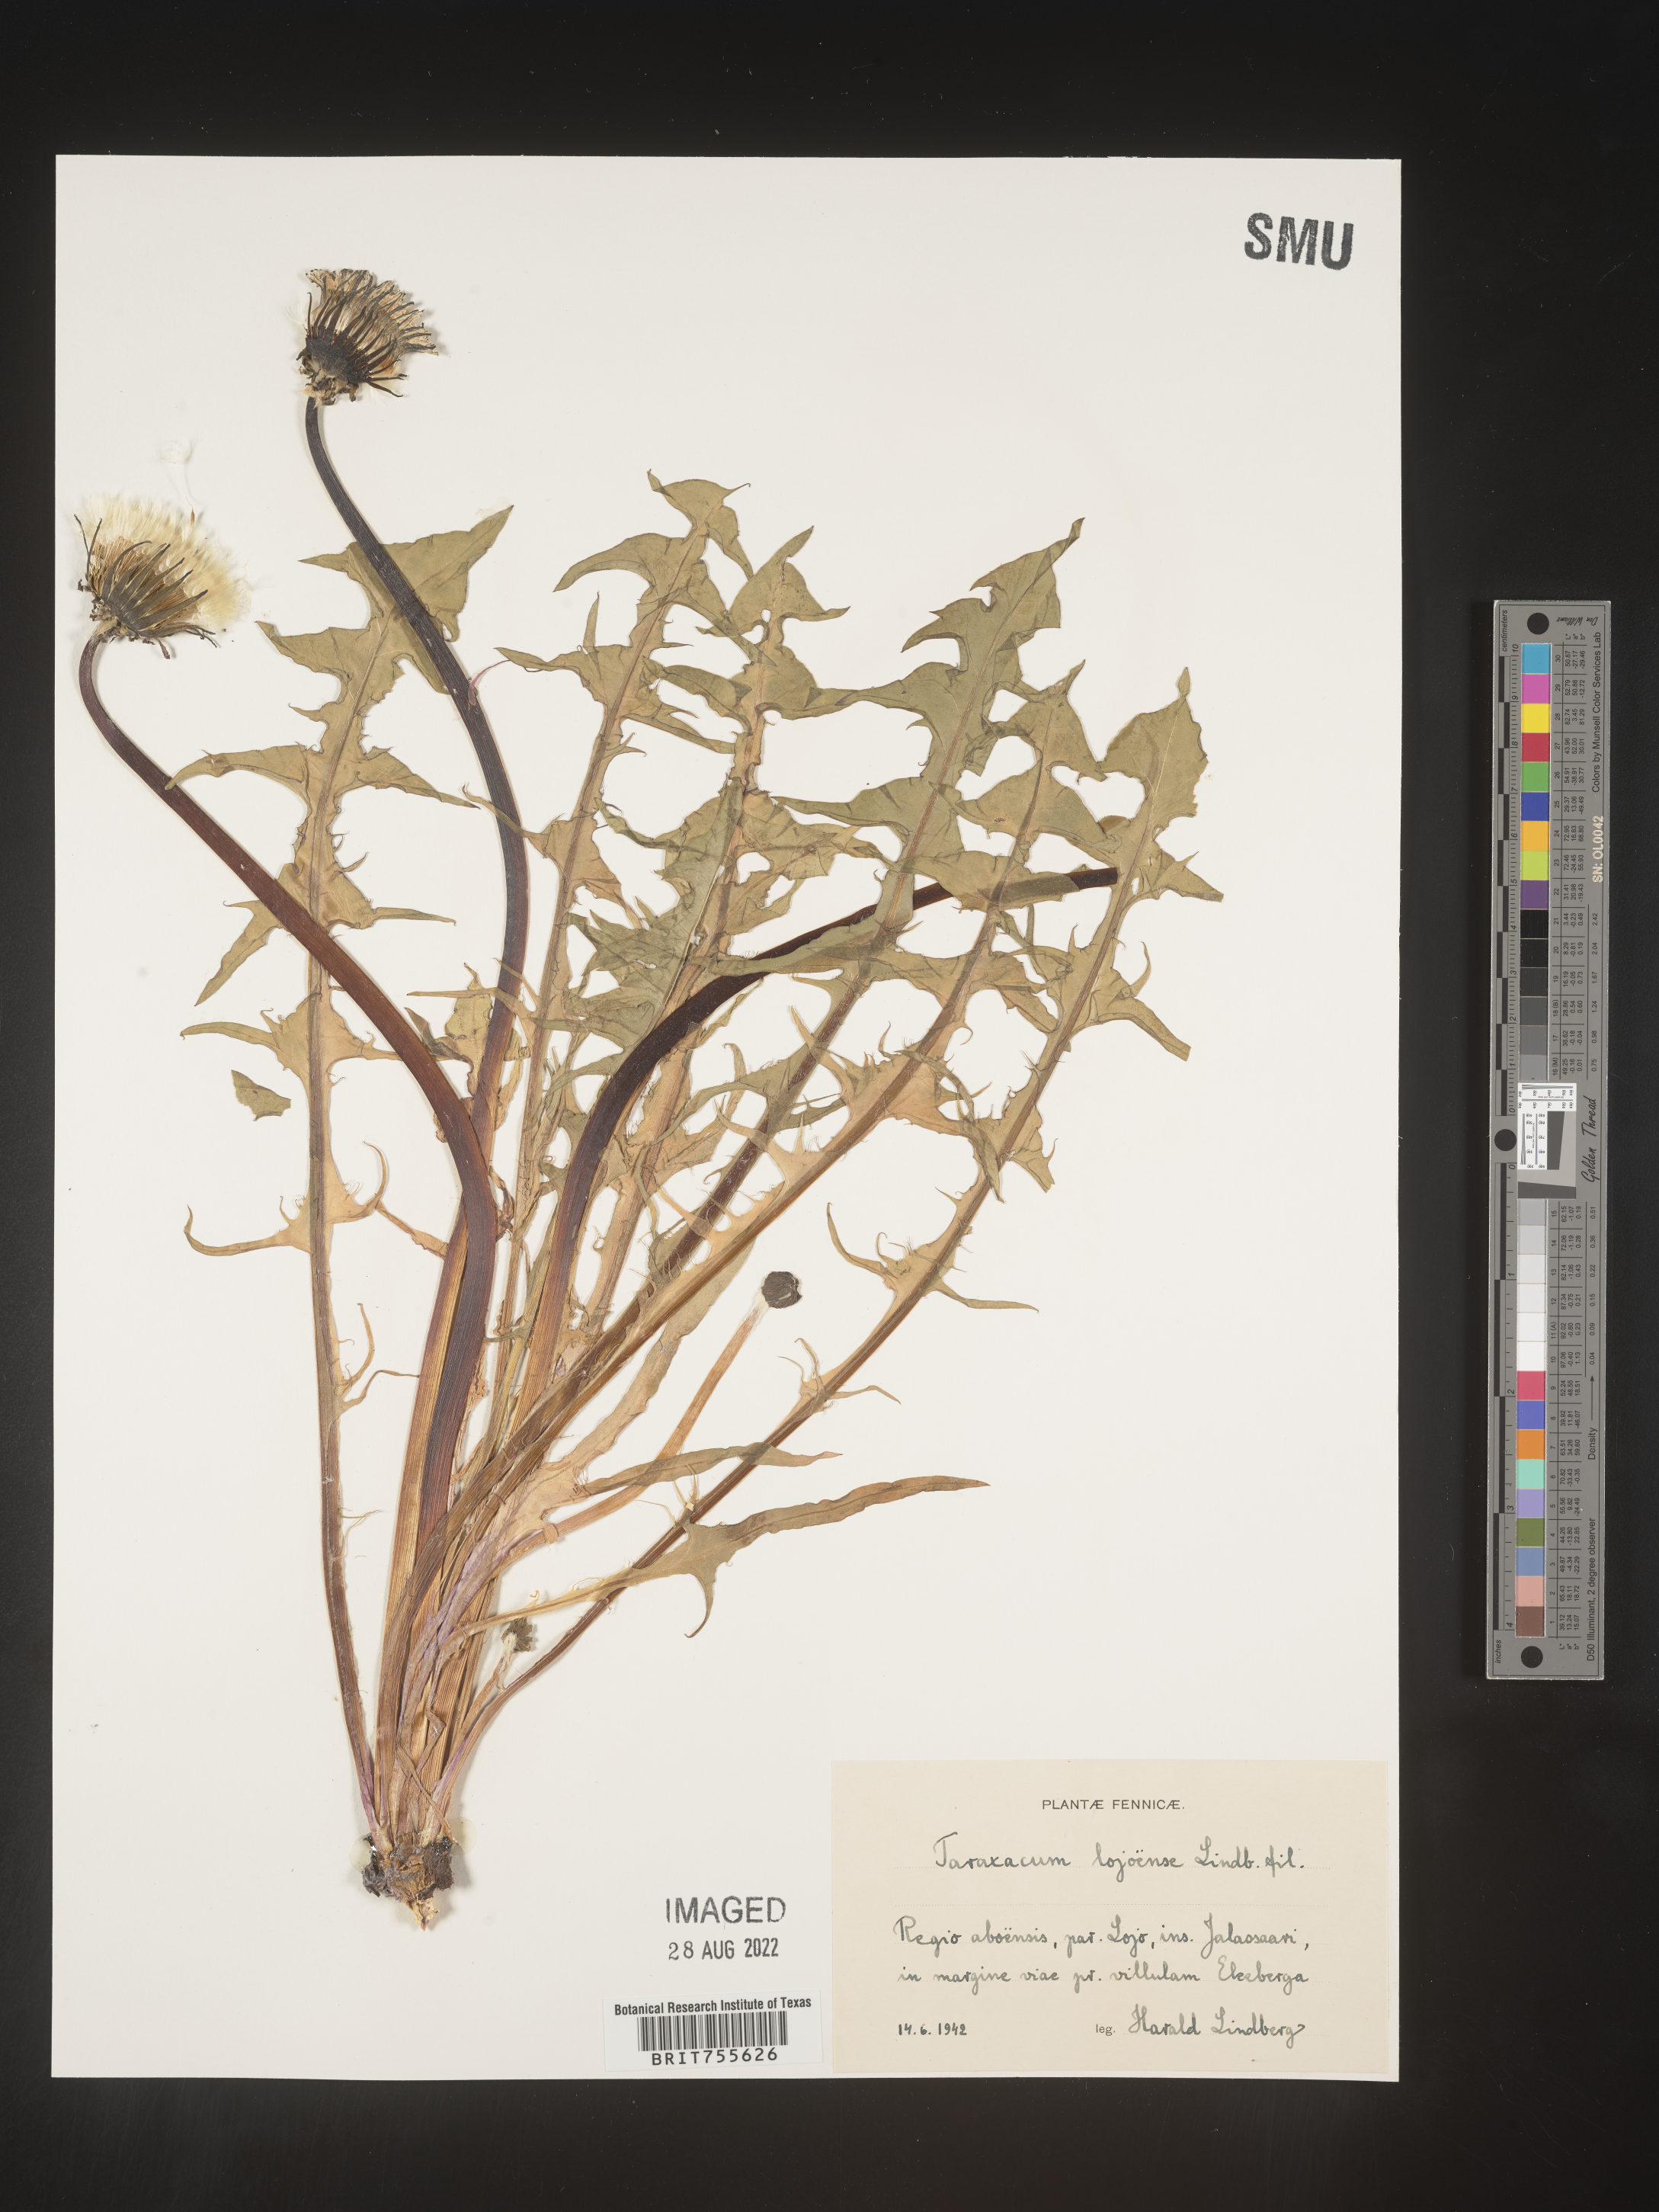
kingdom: Plantae
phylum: Tracheophyta
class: Magnoliopsida
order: Asterales
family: Asteraceae
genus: Taraxacum
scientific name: Taraxacum
